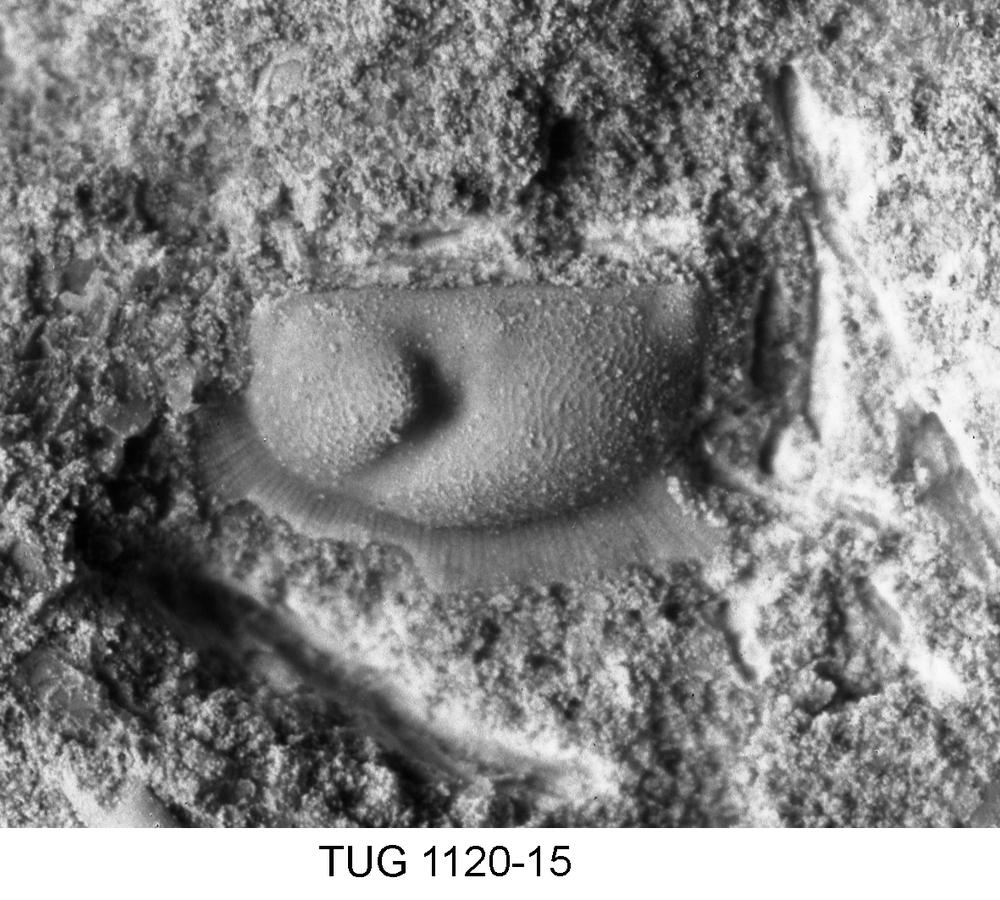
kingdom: Animalia
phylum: Arthropoda
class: Ostracoda
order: Palaeocopida
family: Oepikiidae
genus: Oepikium
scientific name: Oepikium
